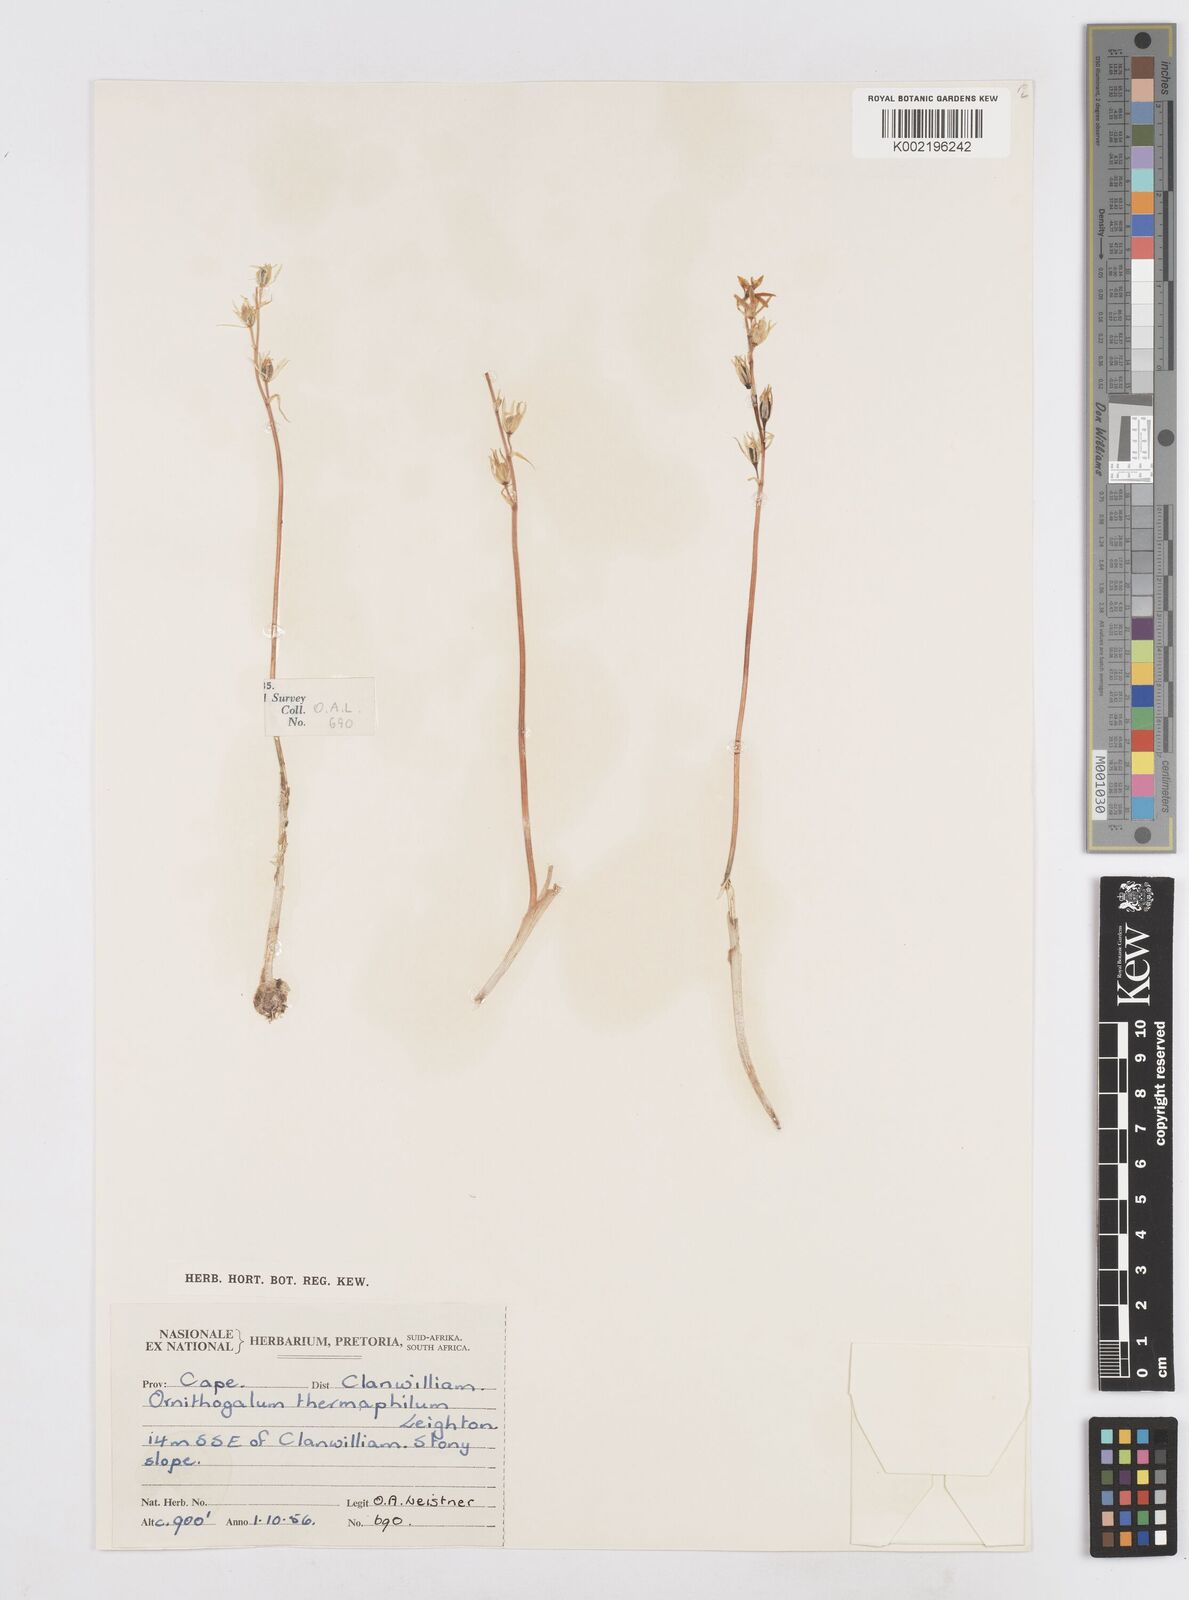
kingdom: Plantae
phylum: Tracheophyta
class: Liliopsida
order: Asparagales
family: Asparagaceae
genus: Ornithogalum
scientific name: Ornithogalum thermophilum
